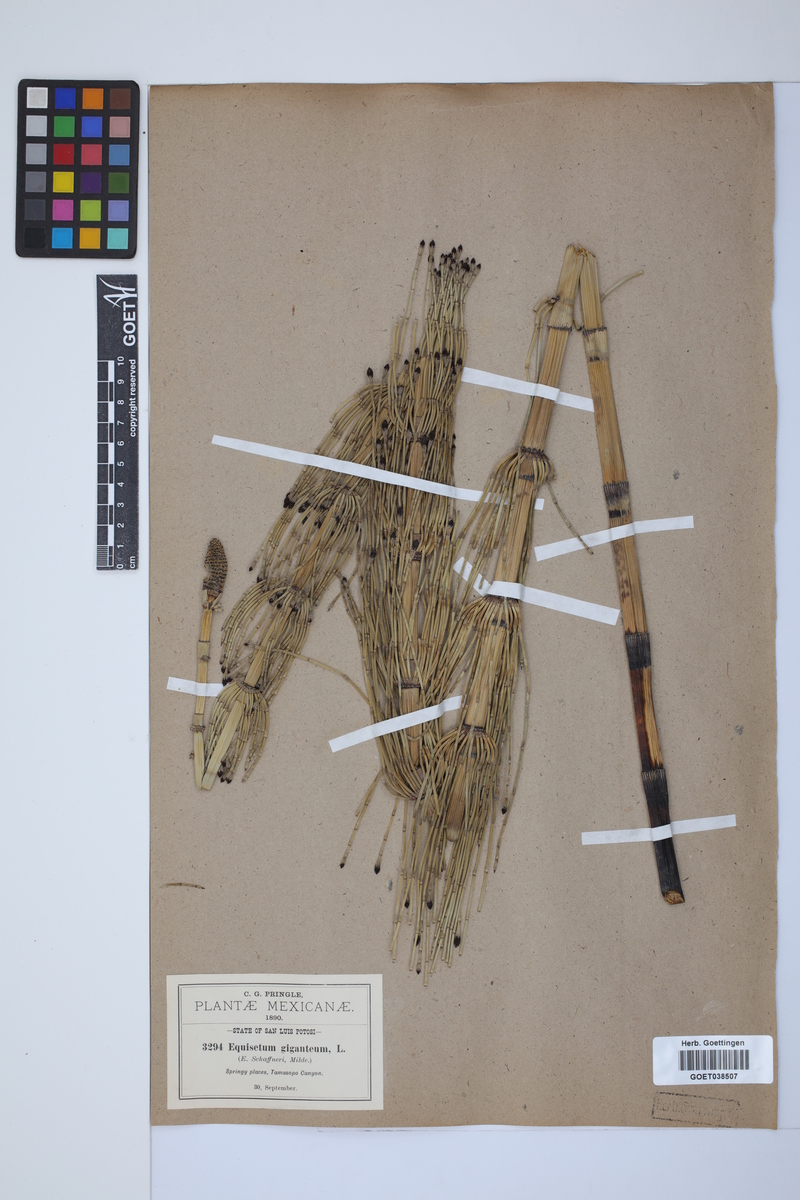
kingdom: Plantae
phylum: Tracheophyta
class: Polypodiopsida
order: Equisetales
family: Equisetaceae
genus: Equisetum
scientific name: Equisetum giganteum
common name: Giant horsetail
